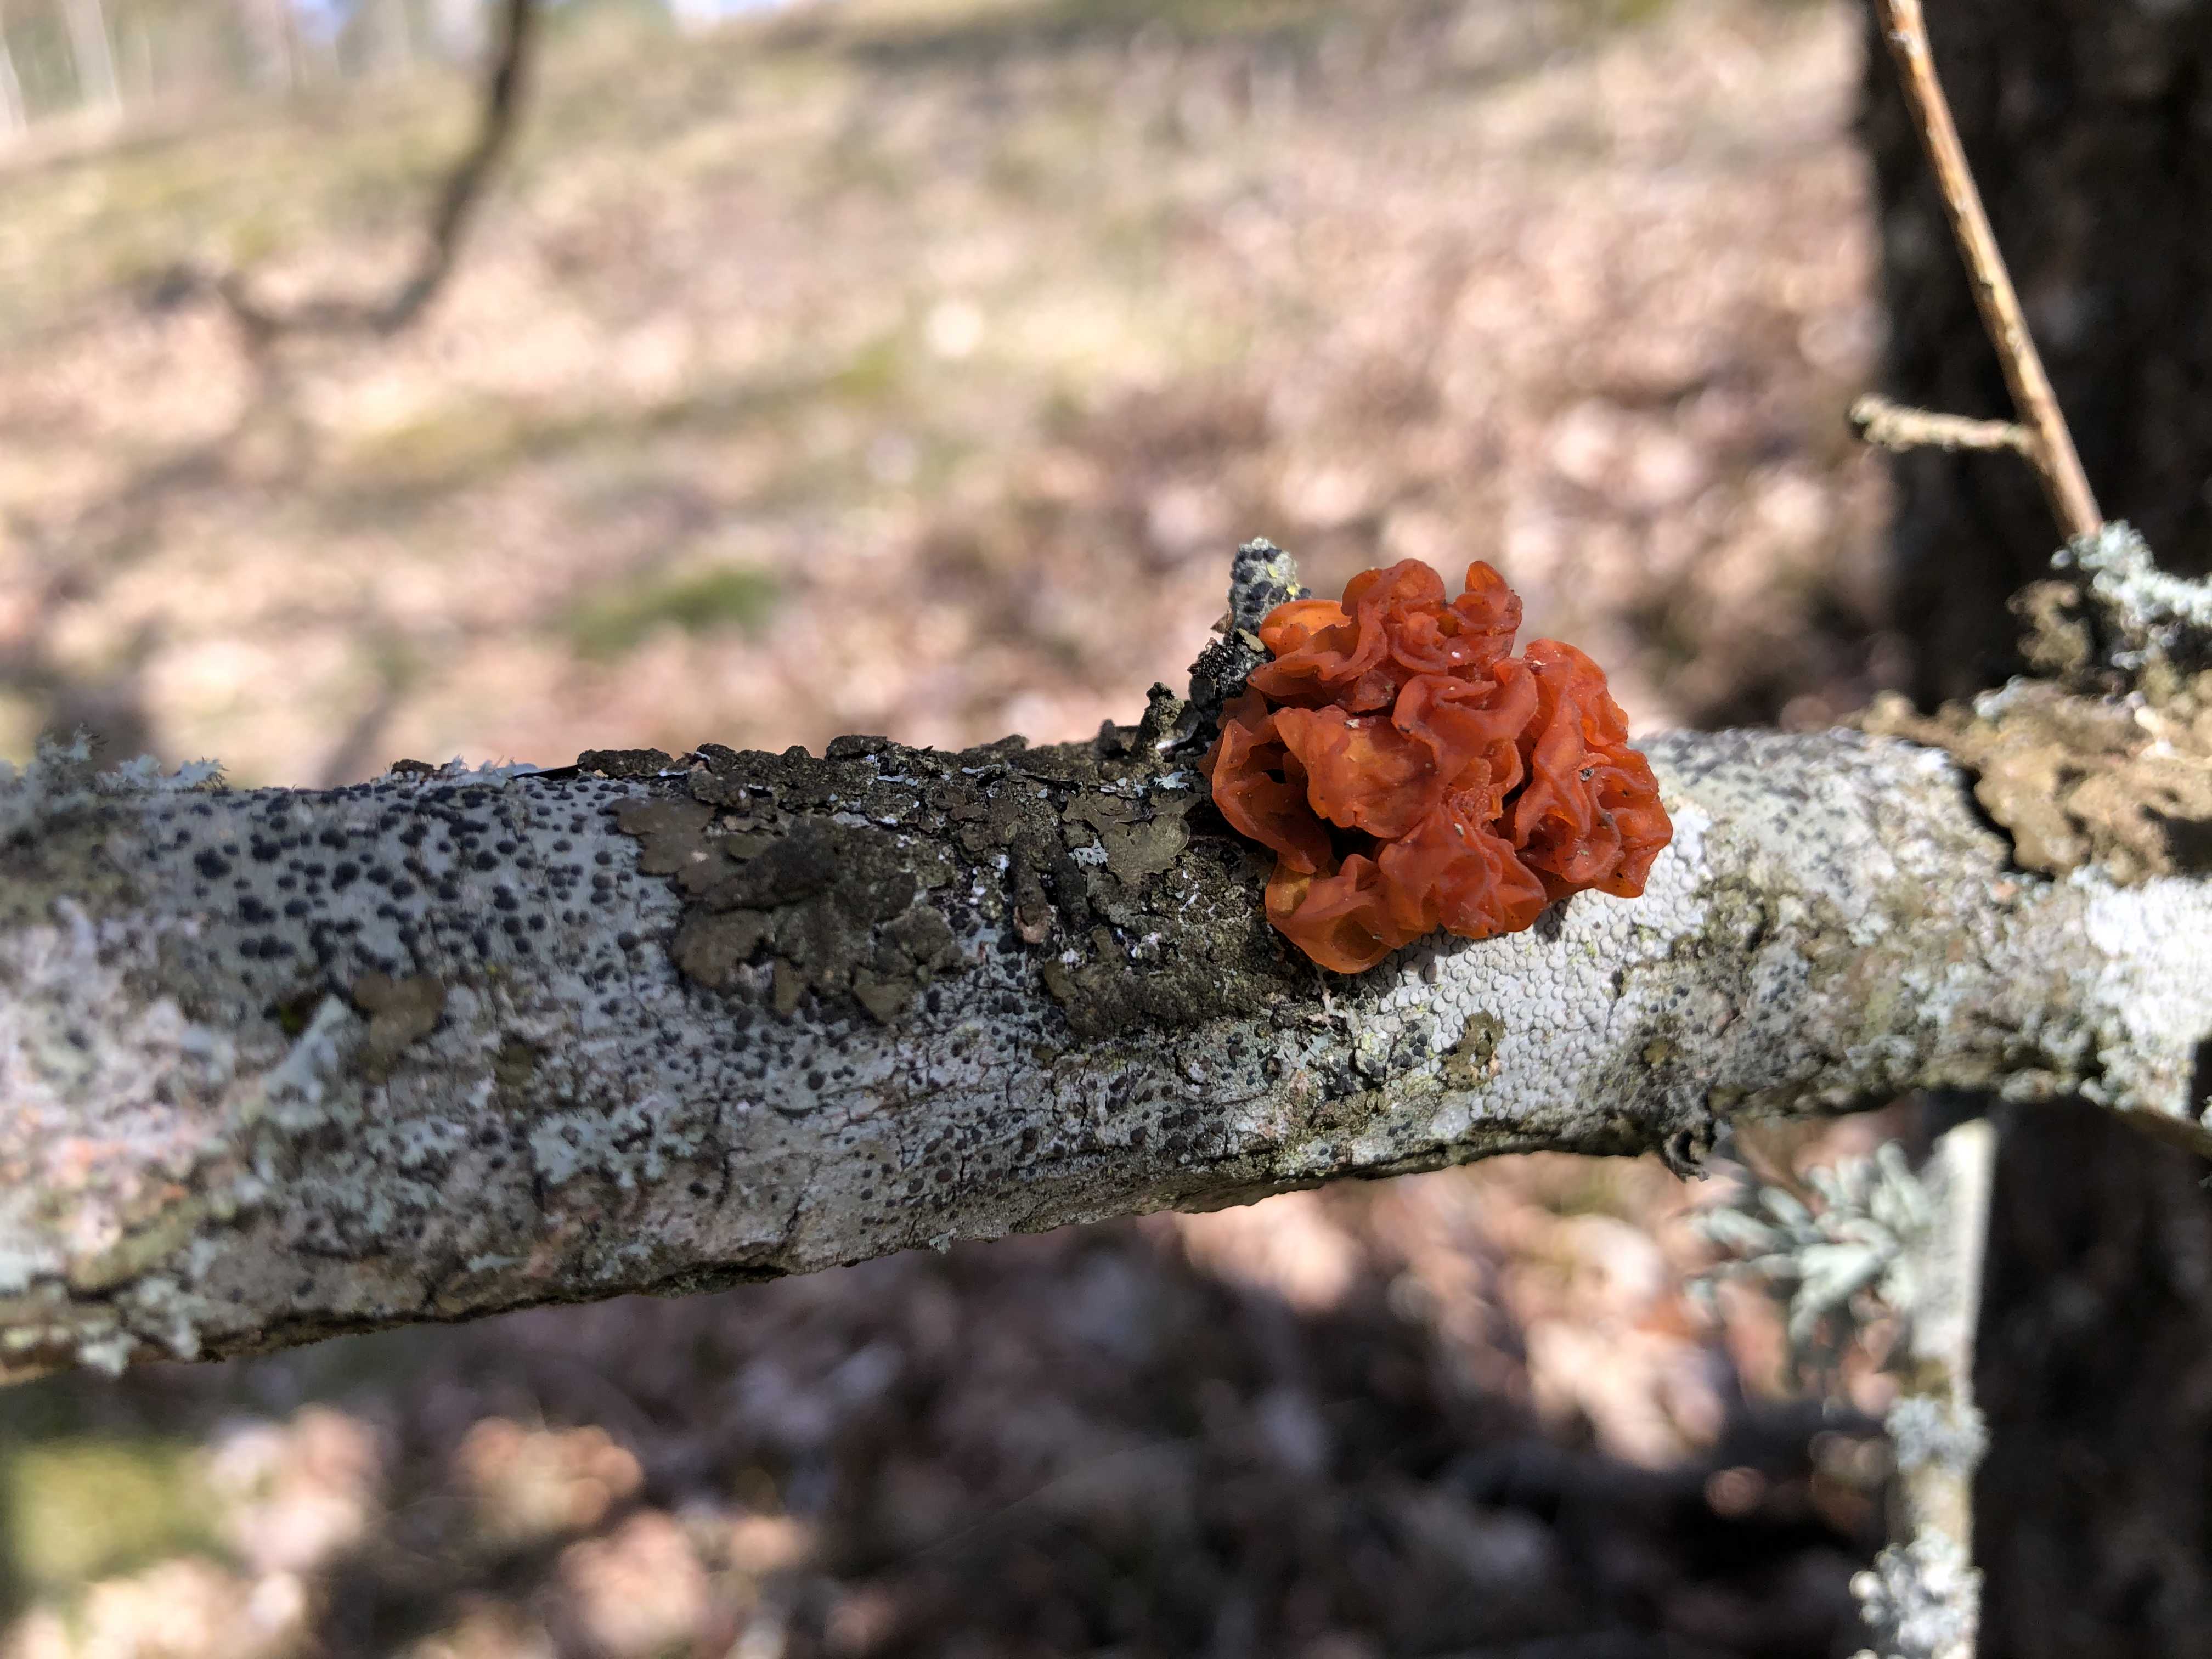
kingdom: Fungi
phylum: Basidiomycota
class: Tremellomycetes
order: Tremellales
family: Tremellaceae
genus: Tremella
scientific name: Tremella mesenterica
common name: gul bævresvamp
